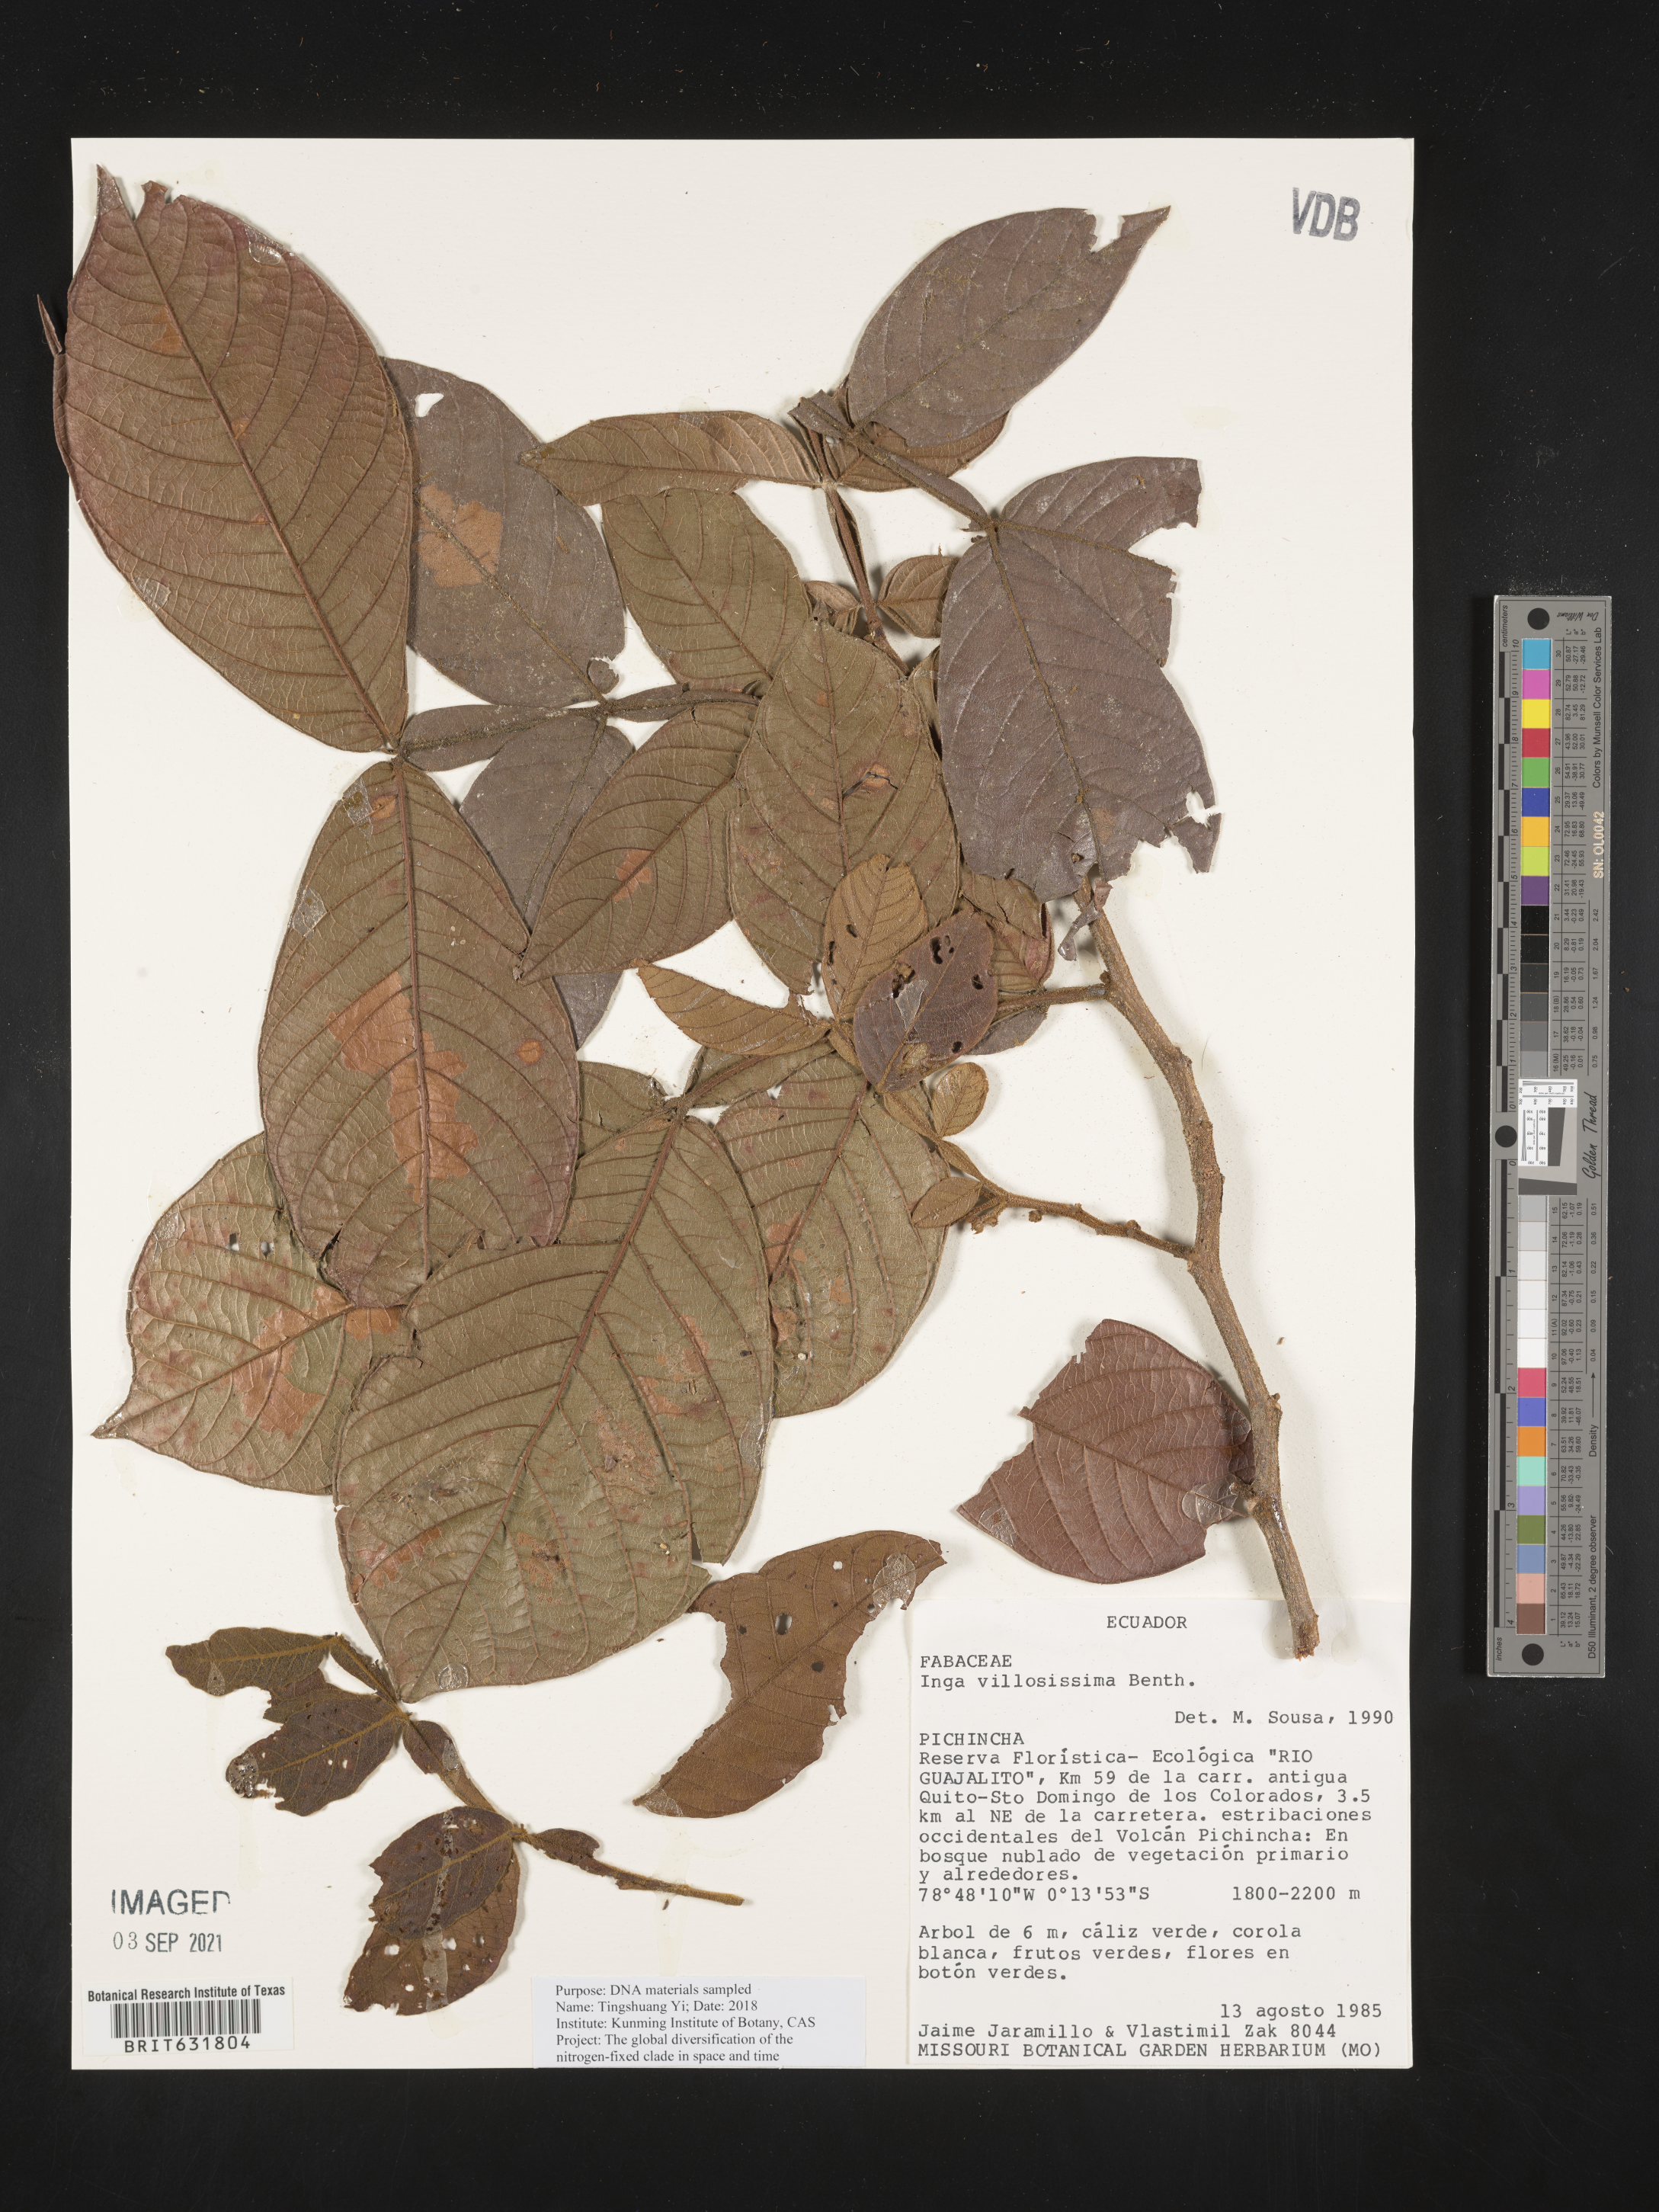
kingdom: Plantae
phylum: Tracheophyta
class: Magnoliopsida
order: Fabales
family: Fabaceae
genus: Inga
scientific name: Inga
